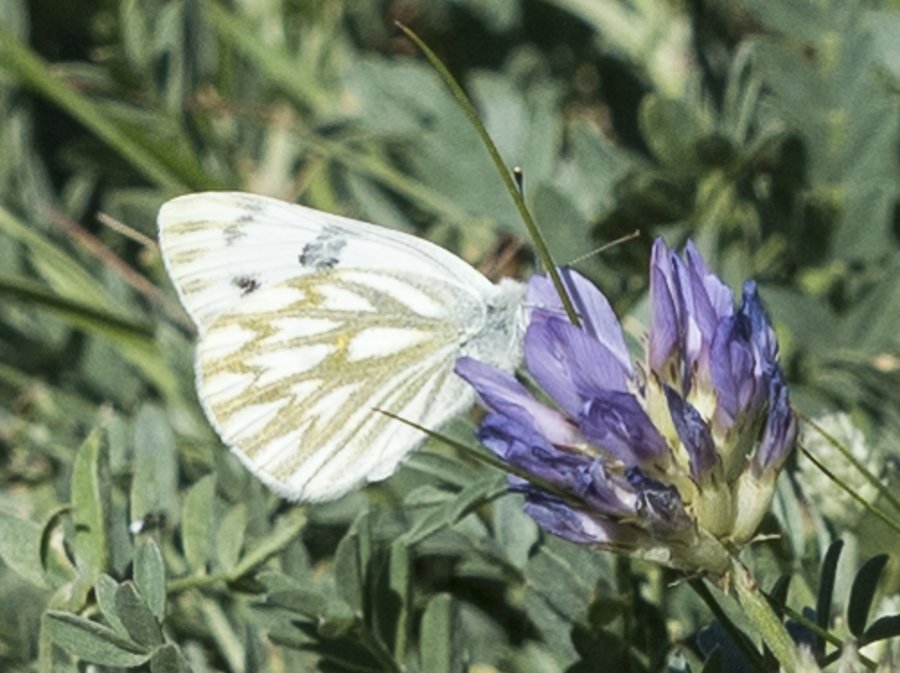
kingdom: Animalia
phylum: Arthropoda
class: Insecta
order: Lepidoptera
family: Pieridae
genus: Pontia
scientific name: Pontia occidentalis
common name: Western White
